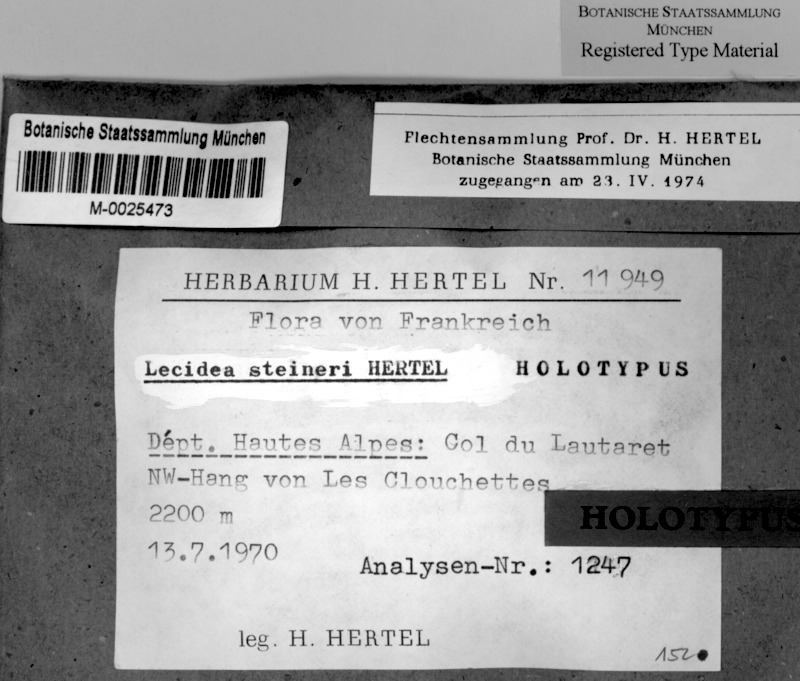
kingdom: Fungi
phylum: Ascomycota
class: Lecanoromycetes
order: Lecideales
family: Lecideaceae
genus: Lecidea
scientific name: Lecidea steineri
